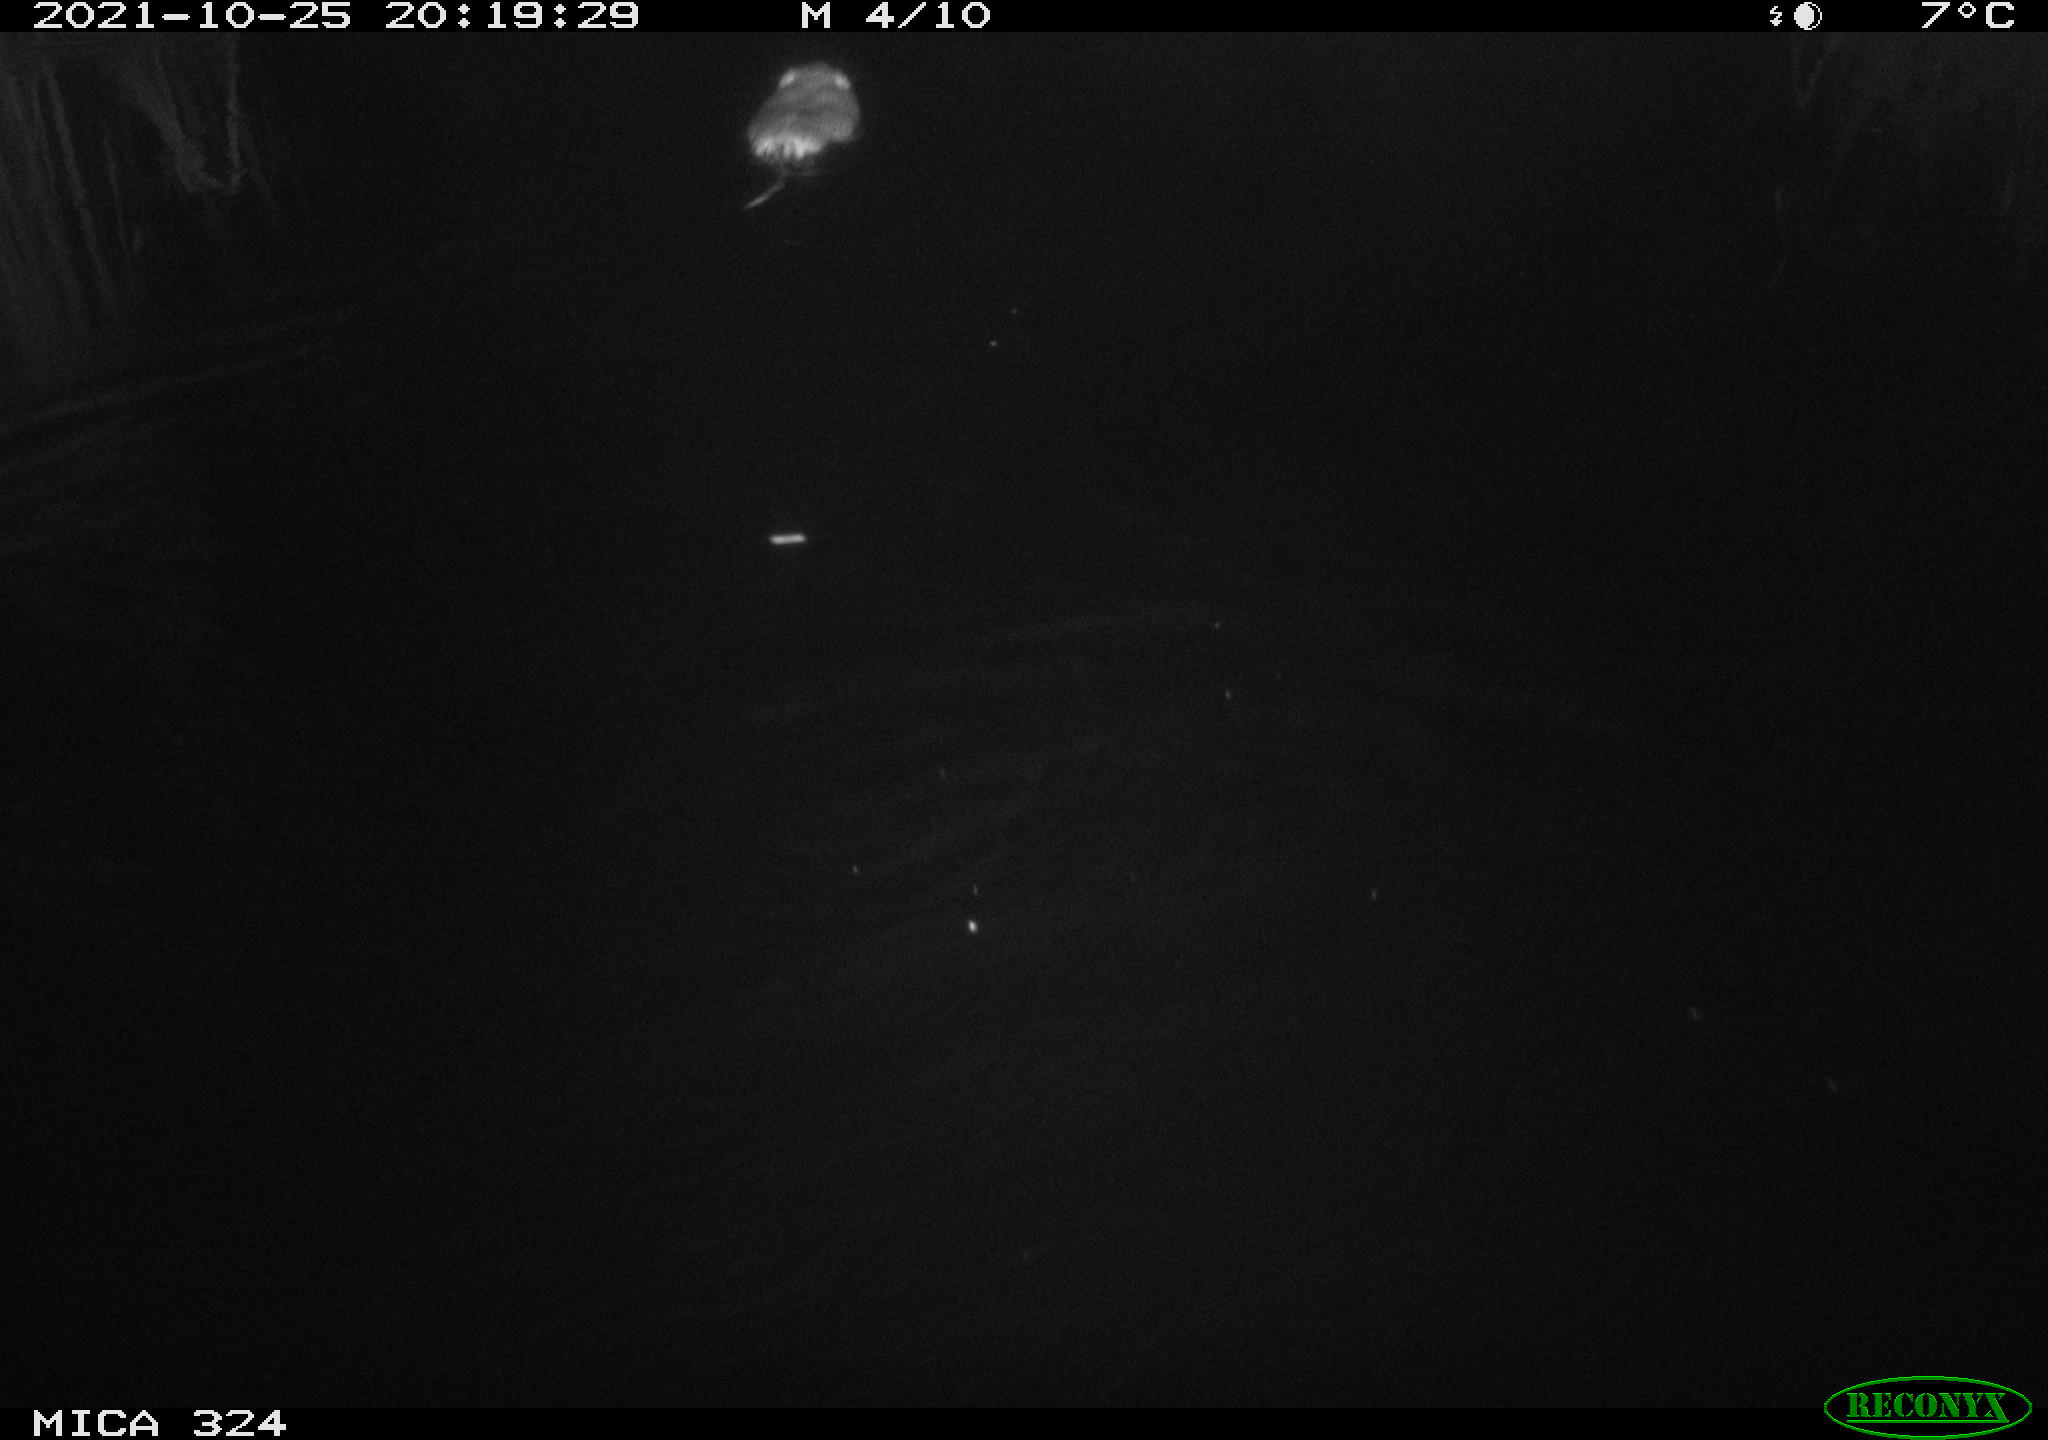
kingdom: Animalia
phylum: Chordata
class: Mammalia
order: Rodentia
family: Cricetidae
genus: Ondatra
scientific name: Ondatra zibethicus
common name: Muskrat
